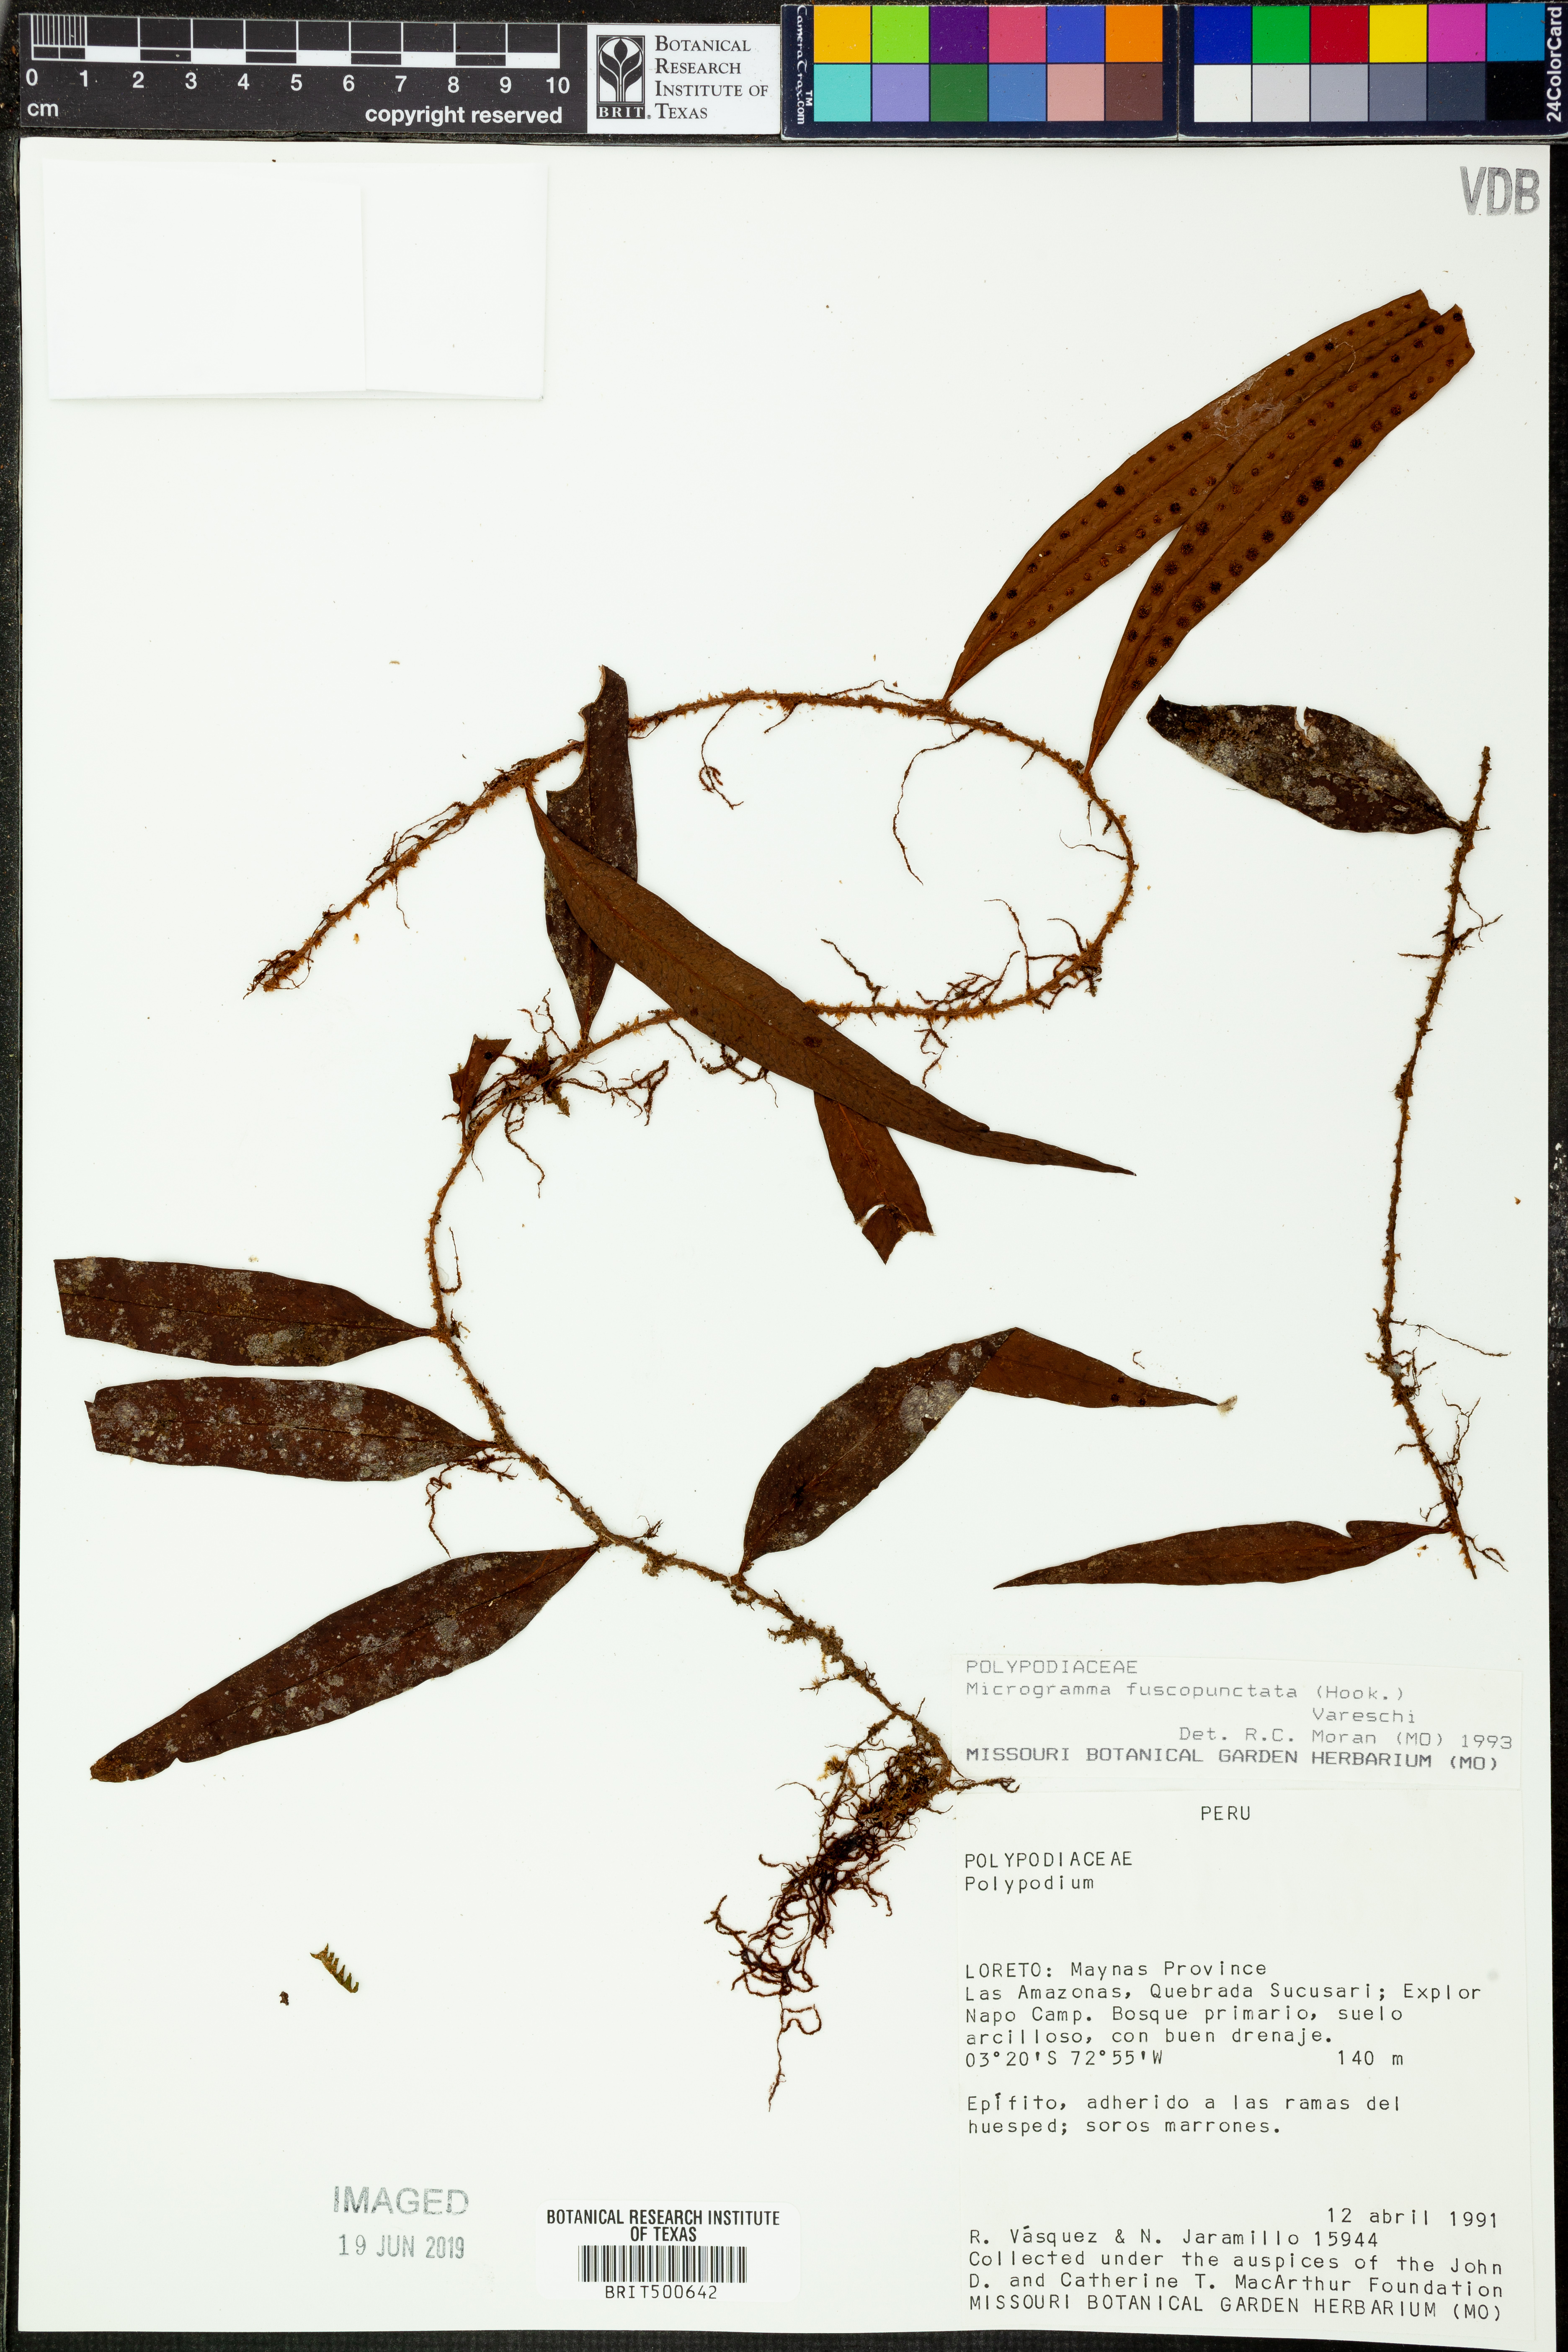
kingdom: Plantae
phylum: Tracheophyta
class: Polypodiopsida
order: Polypodiales
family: Polypodiaceae
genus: Polypodium
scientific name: Polypodium
